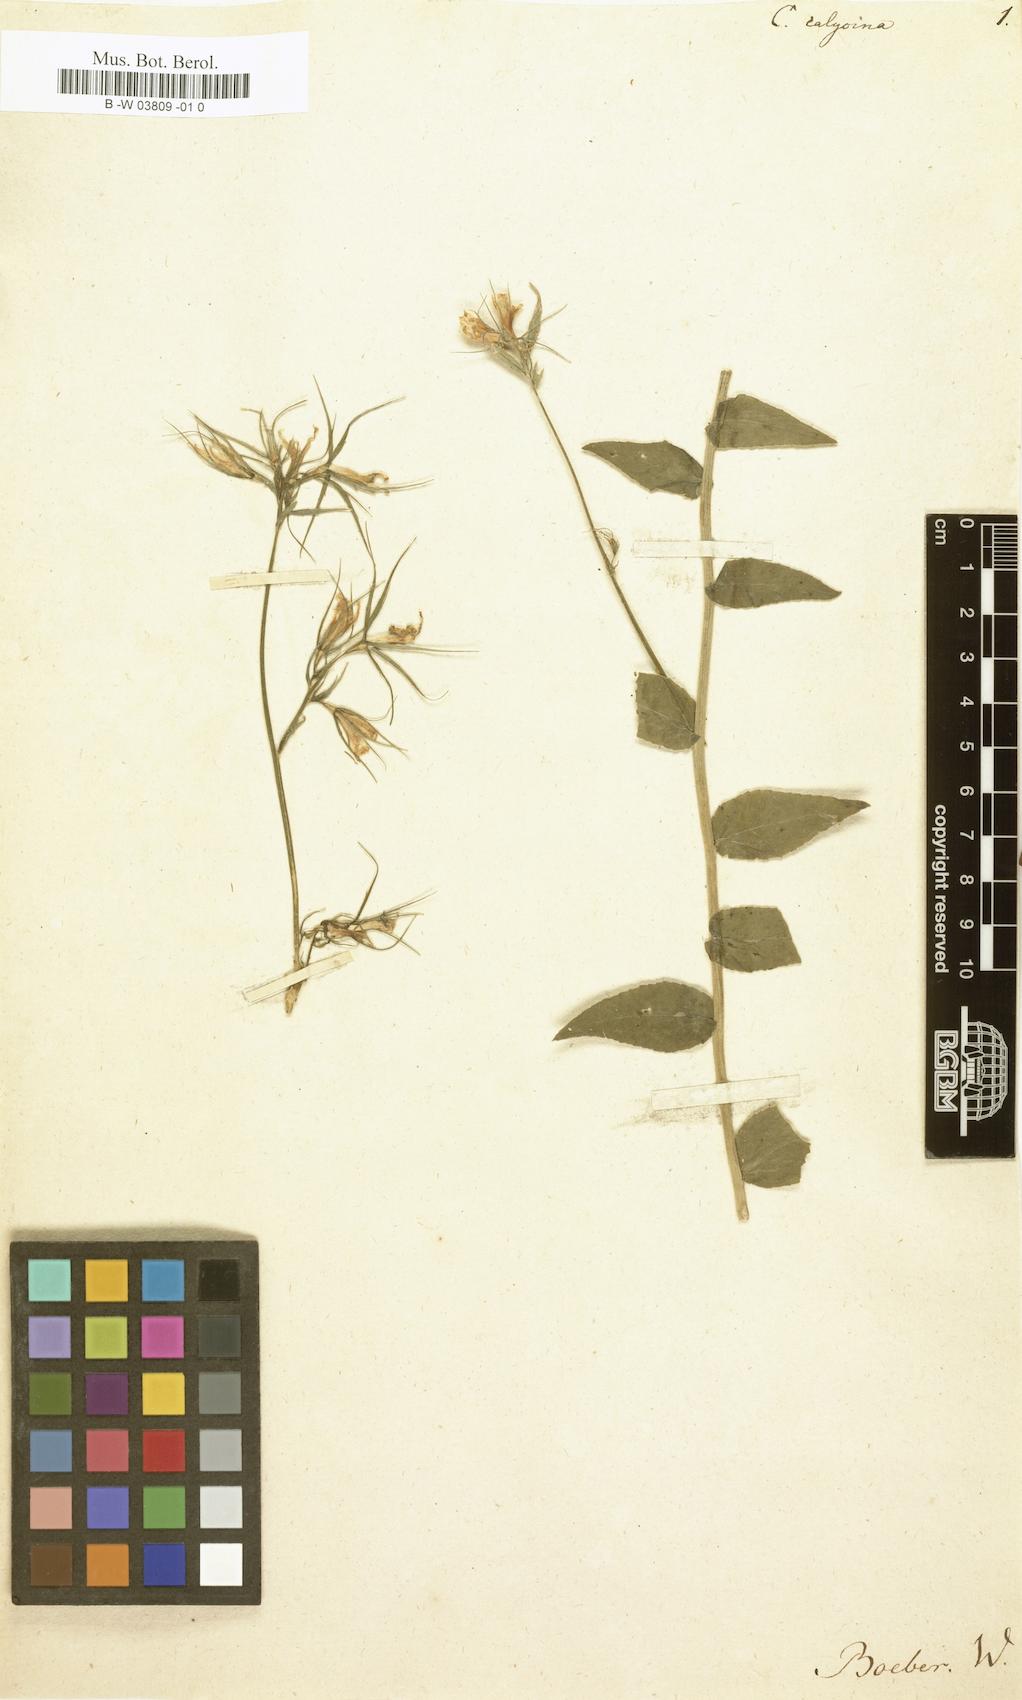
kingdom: Plantae
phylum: Tracheophyta
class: Magnoliopsida
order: Asterales
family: Campanulaceae
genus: Campanula
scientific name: Campanula rapunculus
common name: Rampion bellflower
